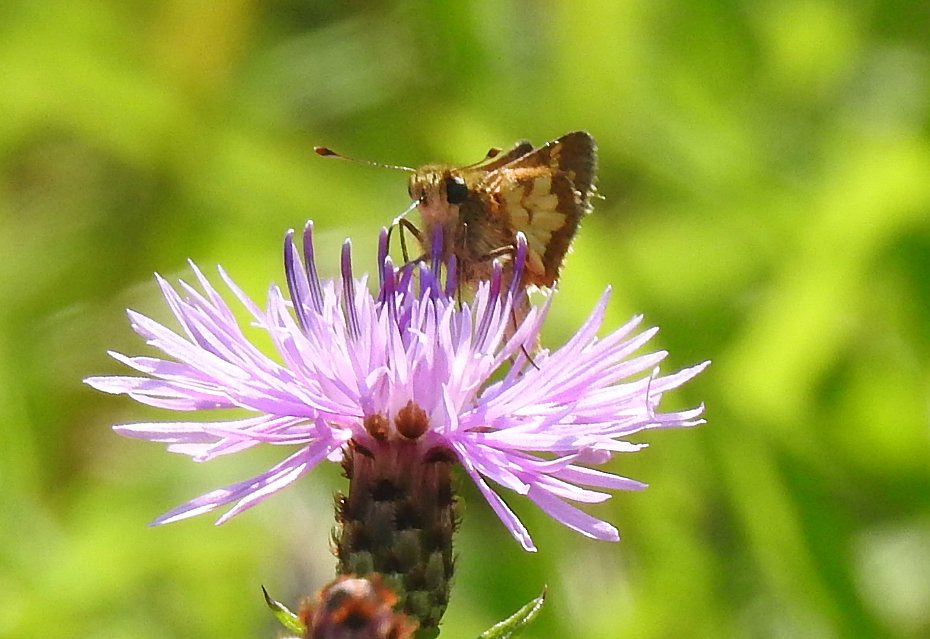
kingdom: Animalia
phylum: Arthropoda
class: Insecta
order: Lepidoptera
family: Hesperiidae
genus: Polites
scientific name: Polites coras
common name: Peck's Skipper
